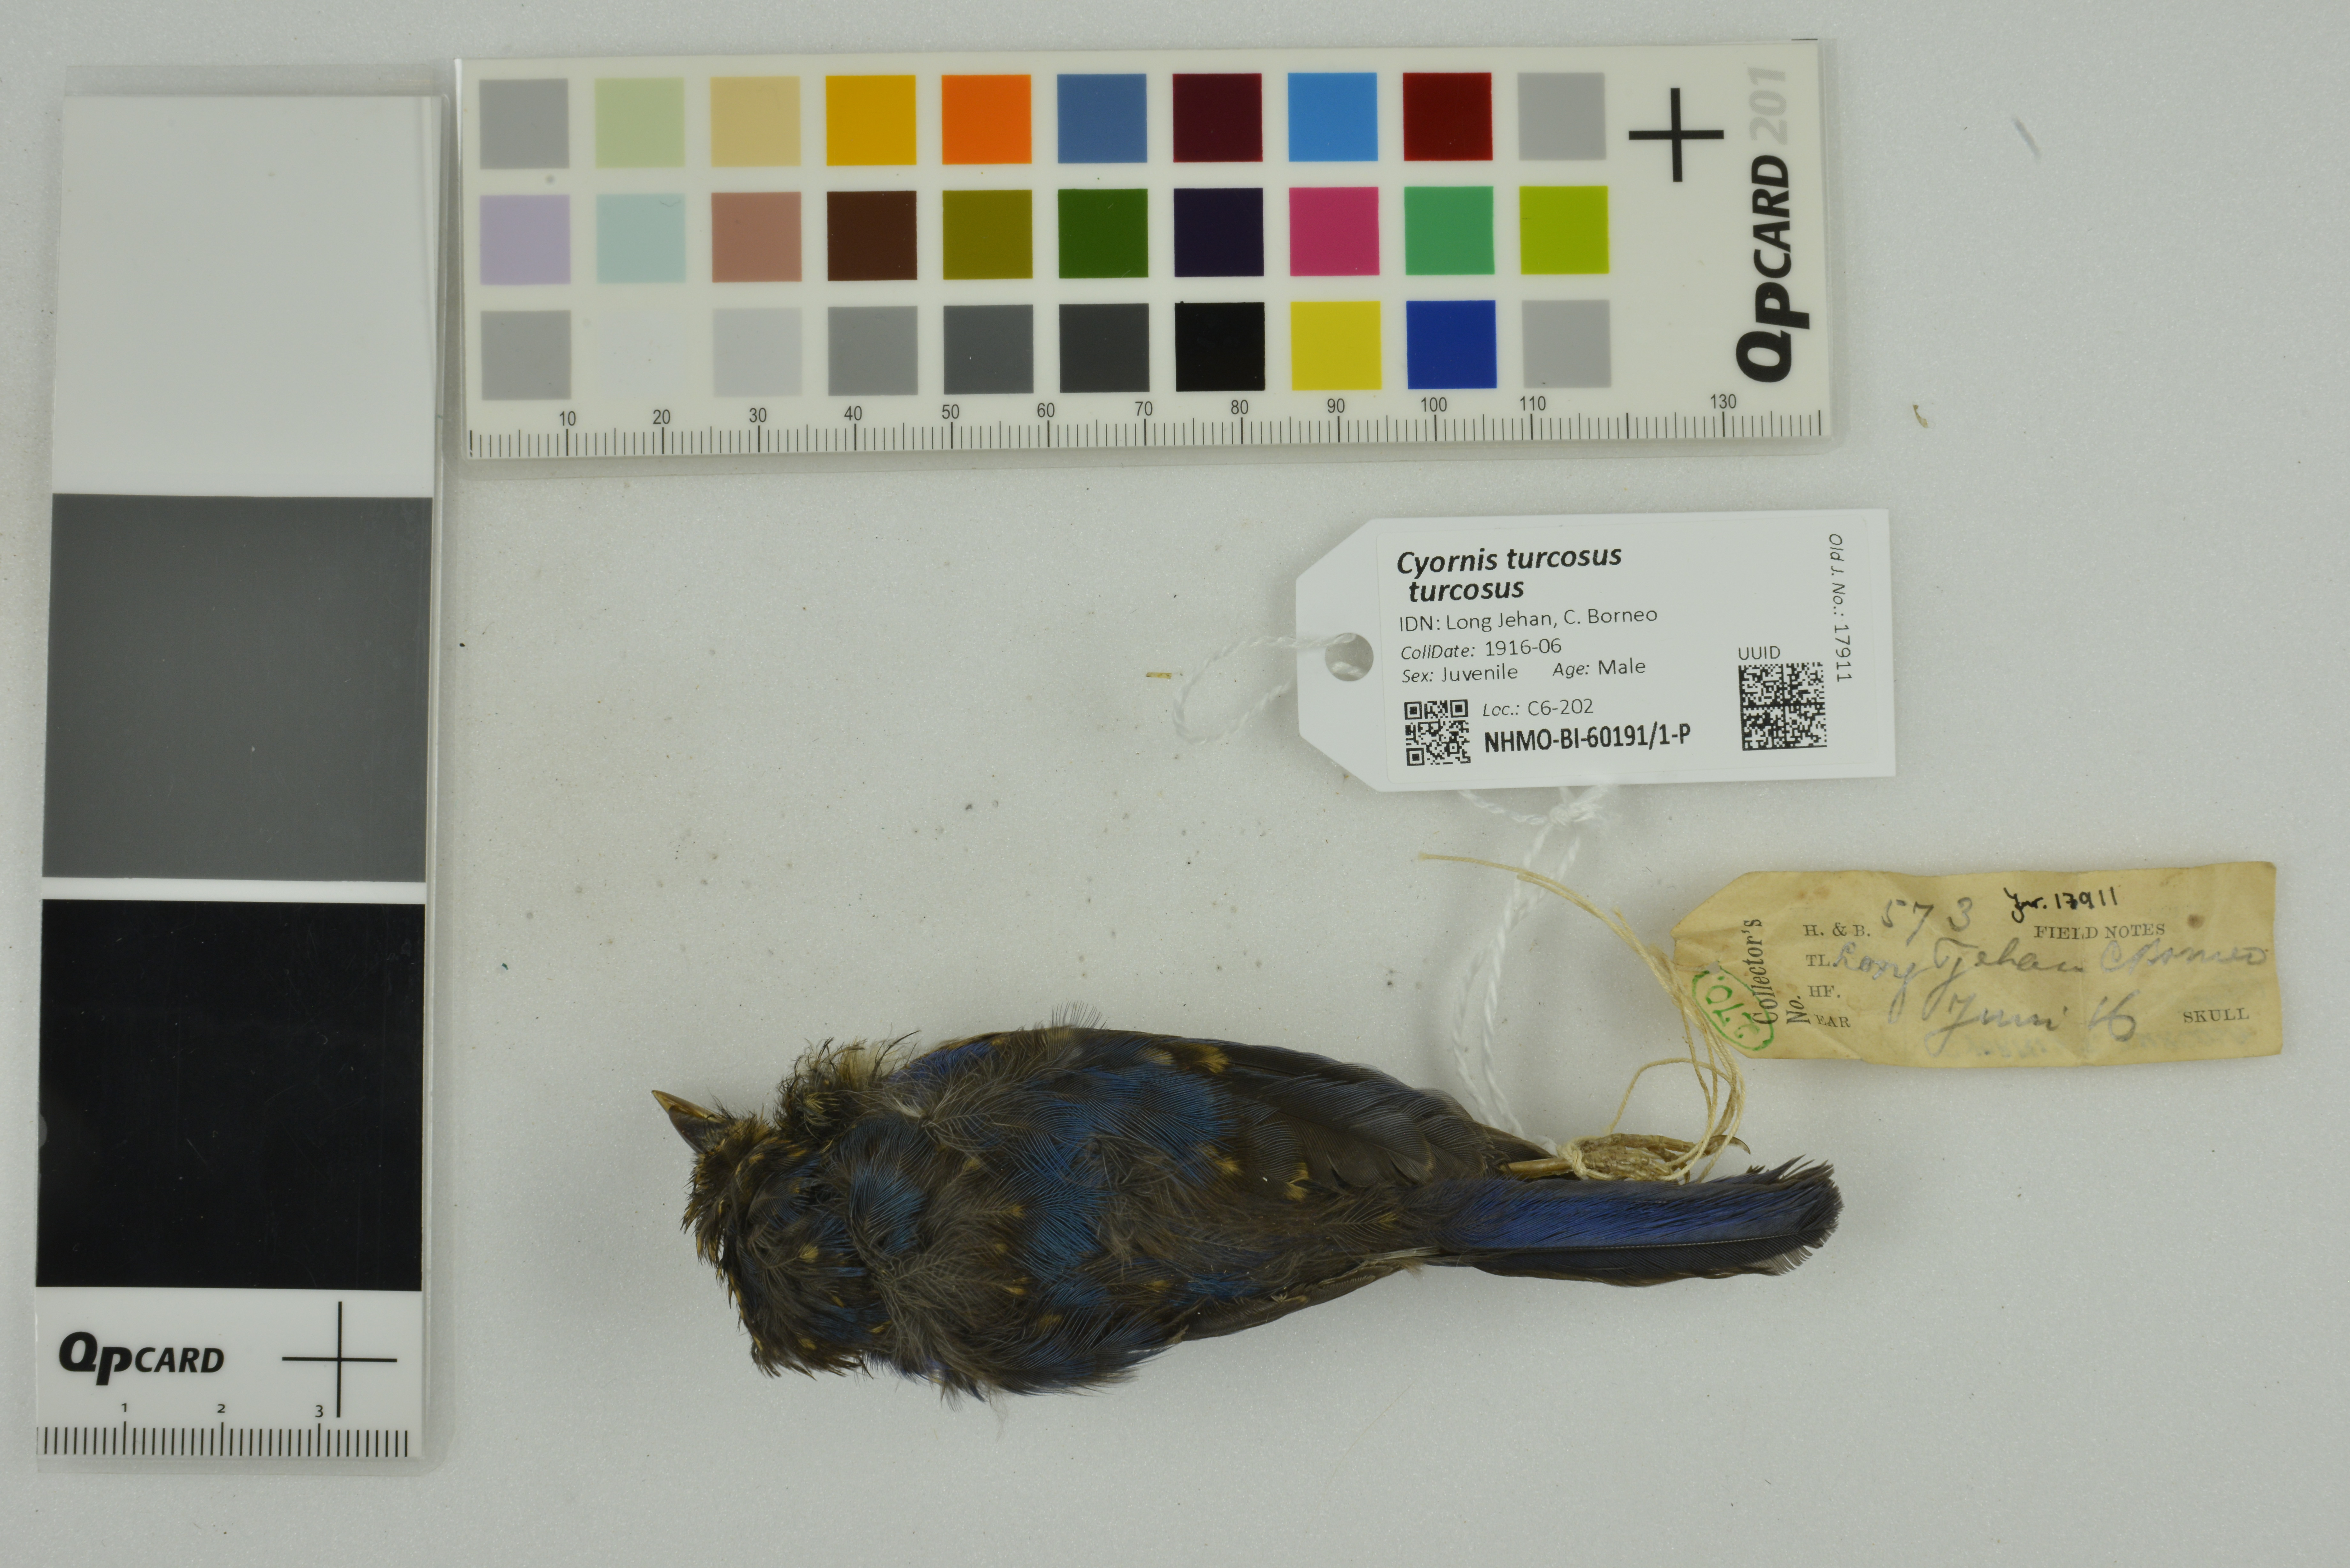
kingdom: Animalia
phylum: Chordata
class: Aves
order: Passeriformes
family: Muscicapidae
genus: Cyornis
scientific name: Cyornis turcosus
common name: Malaysian blue flycatcher
